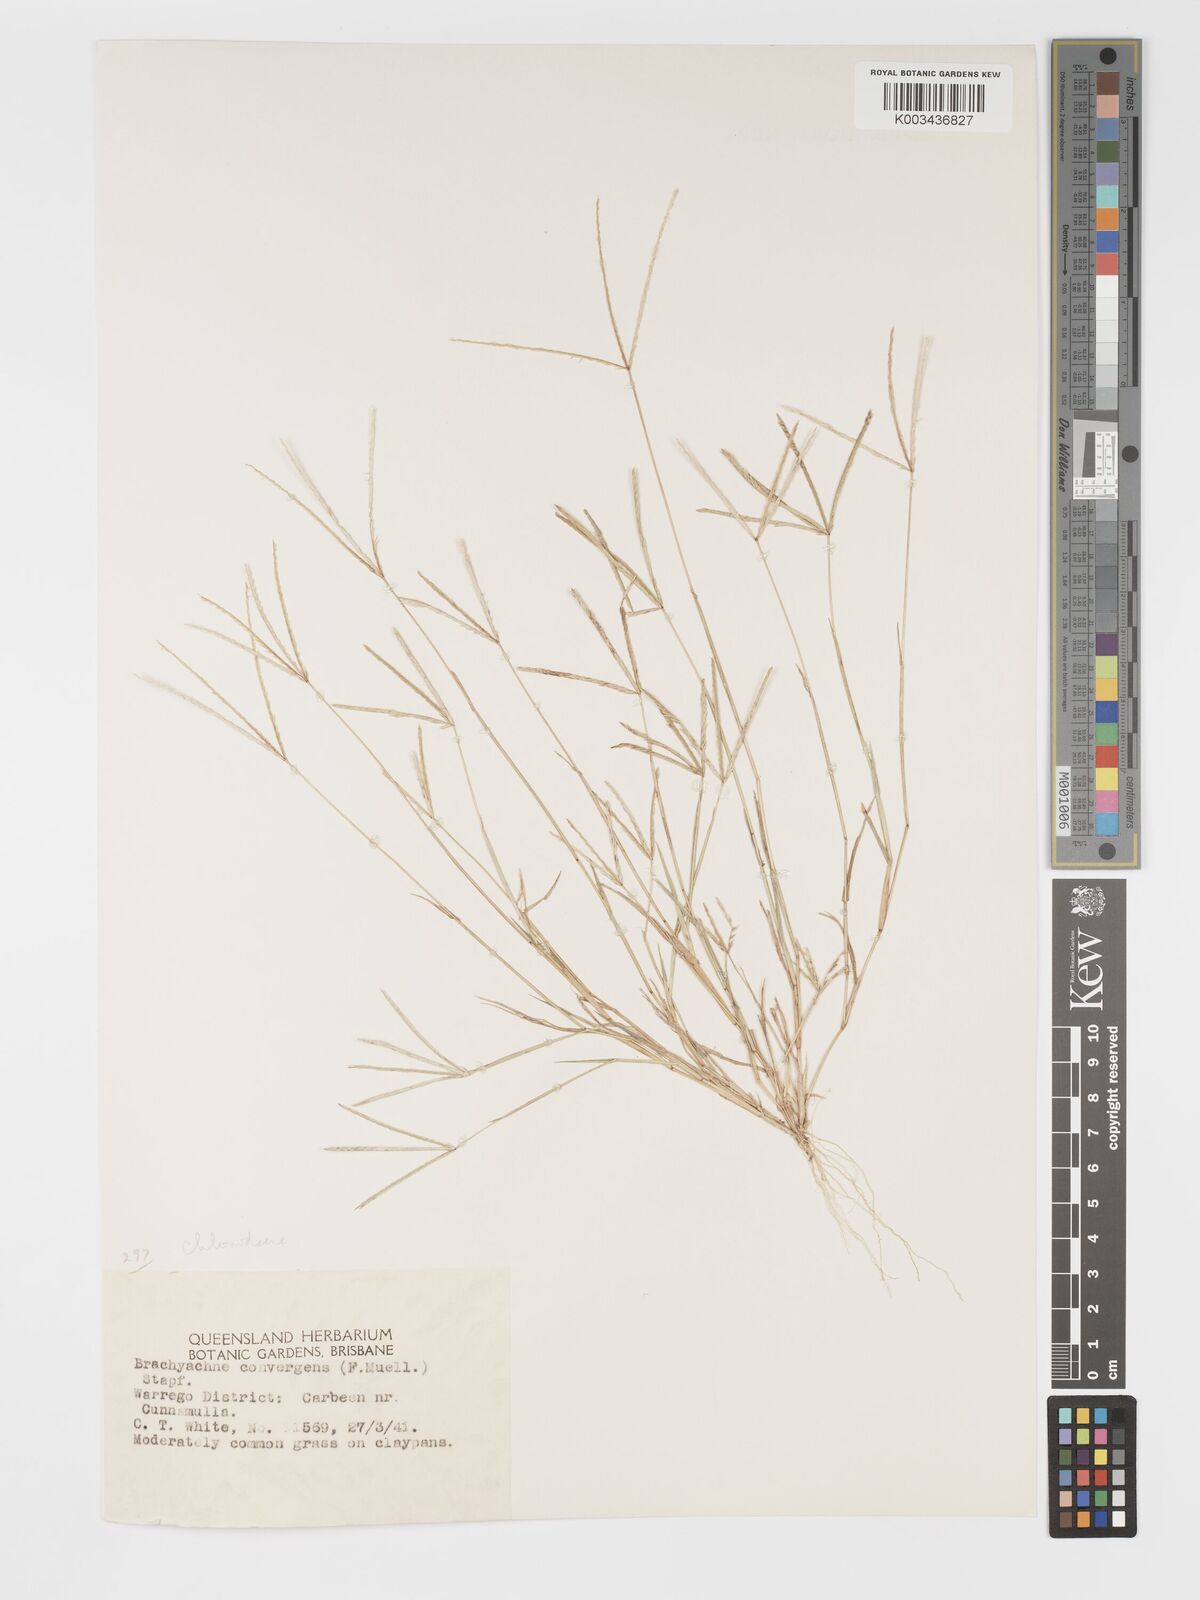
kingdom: Plantae
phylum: Tracheophyta
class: Liliopsida
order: Poales
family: Poaceae
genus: Cynodon
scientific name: Cynodon convergens
